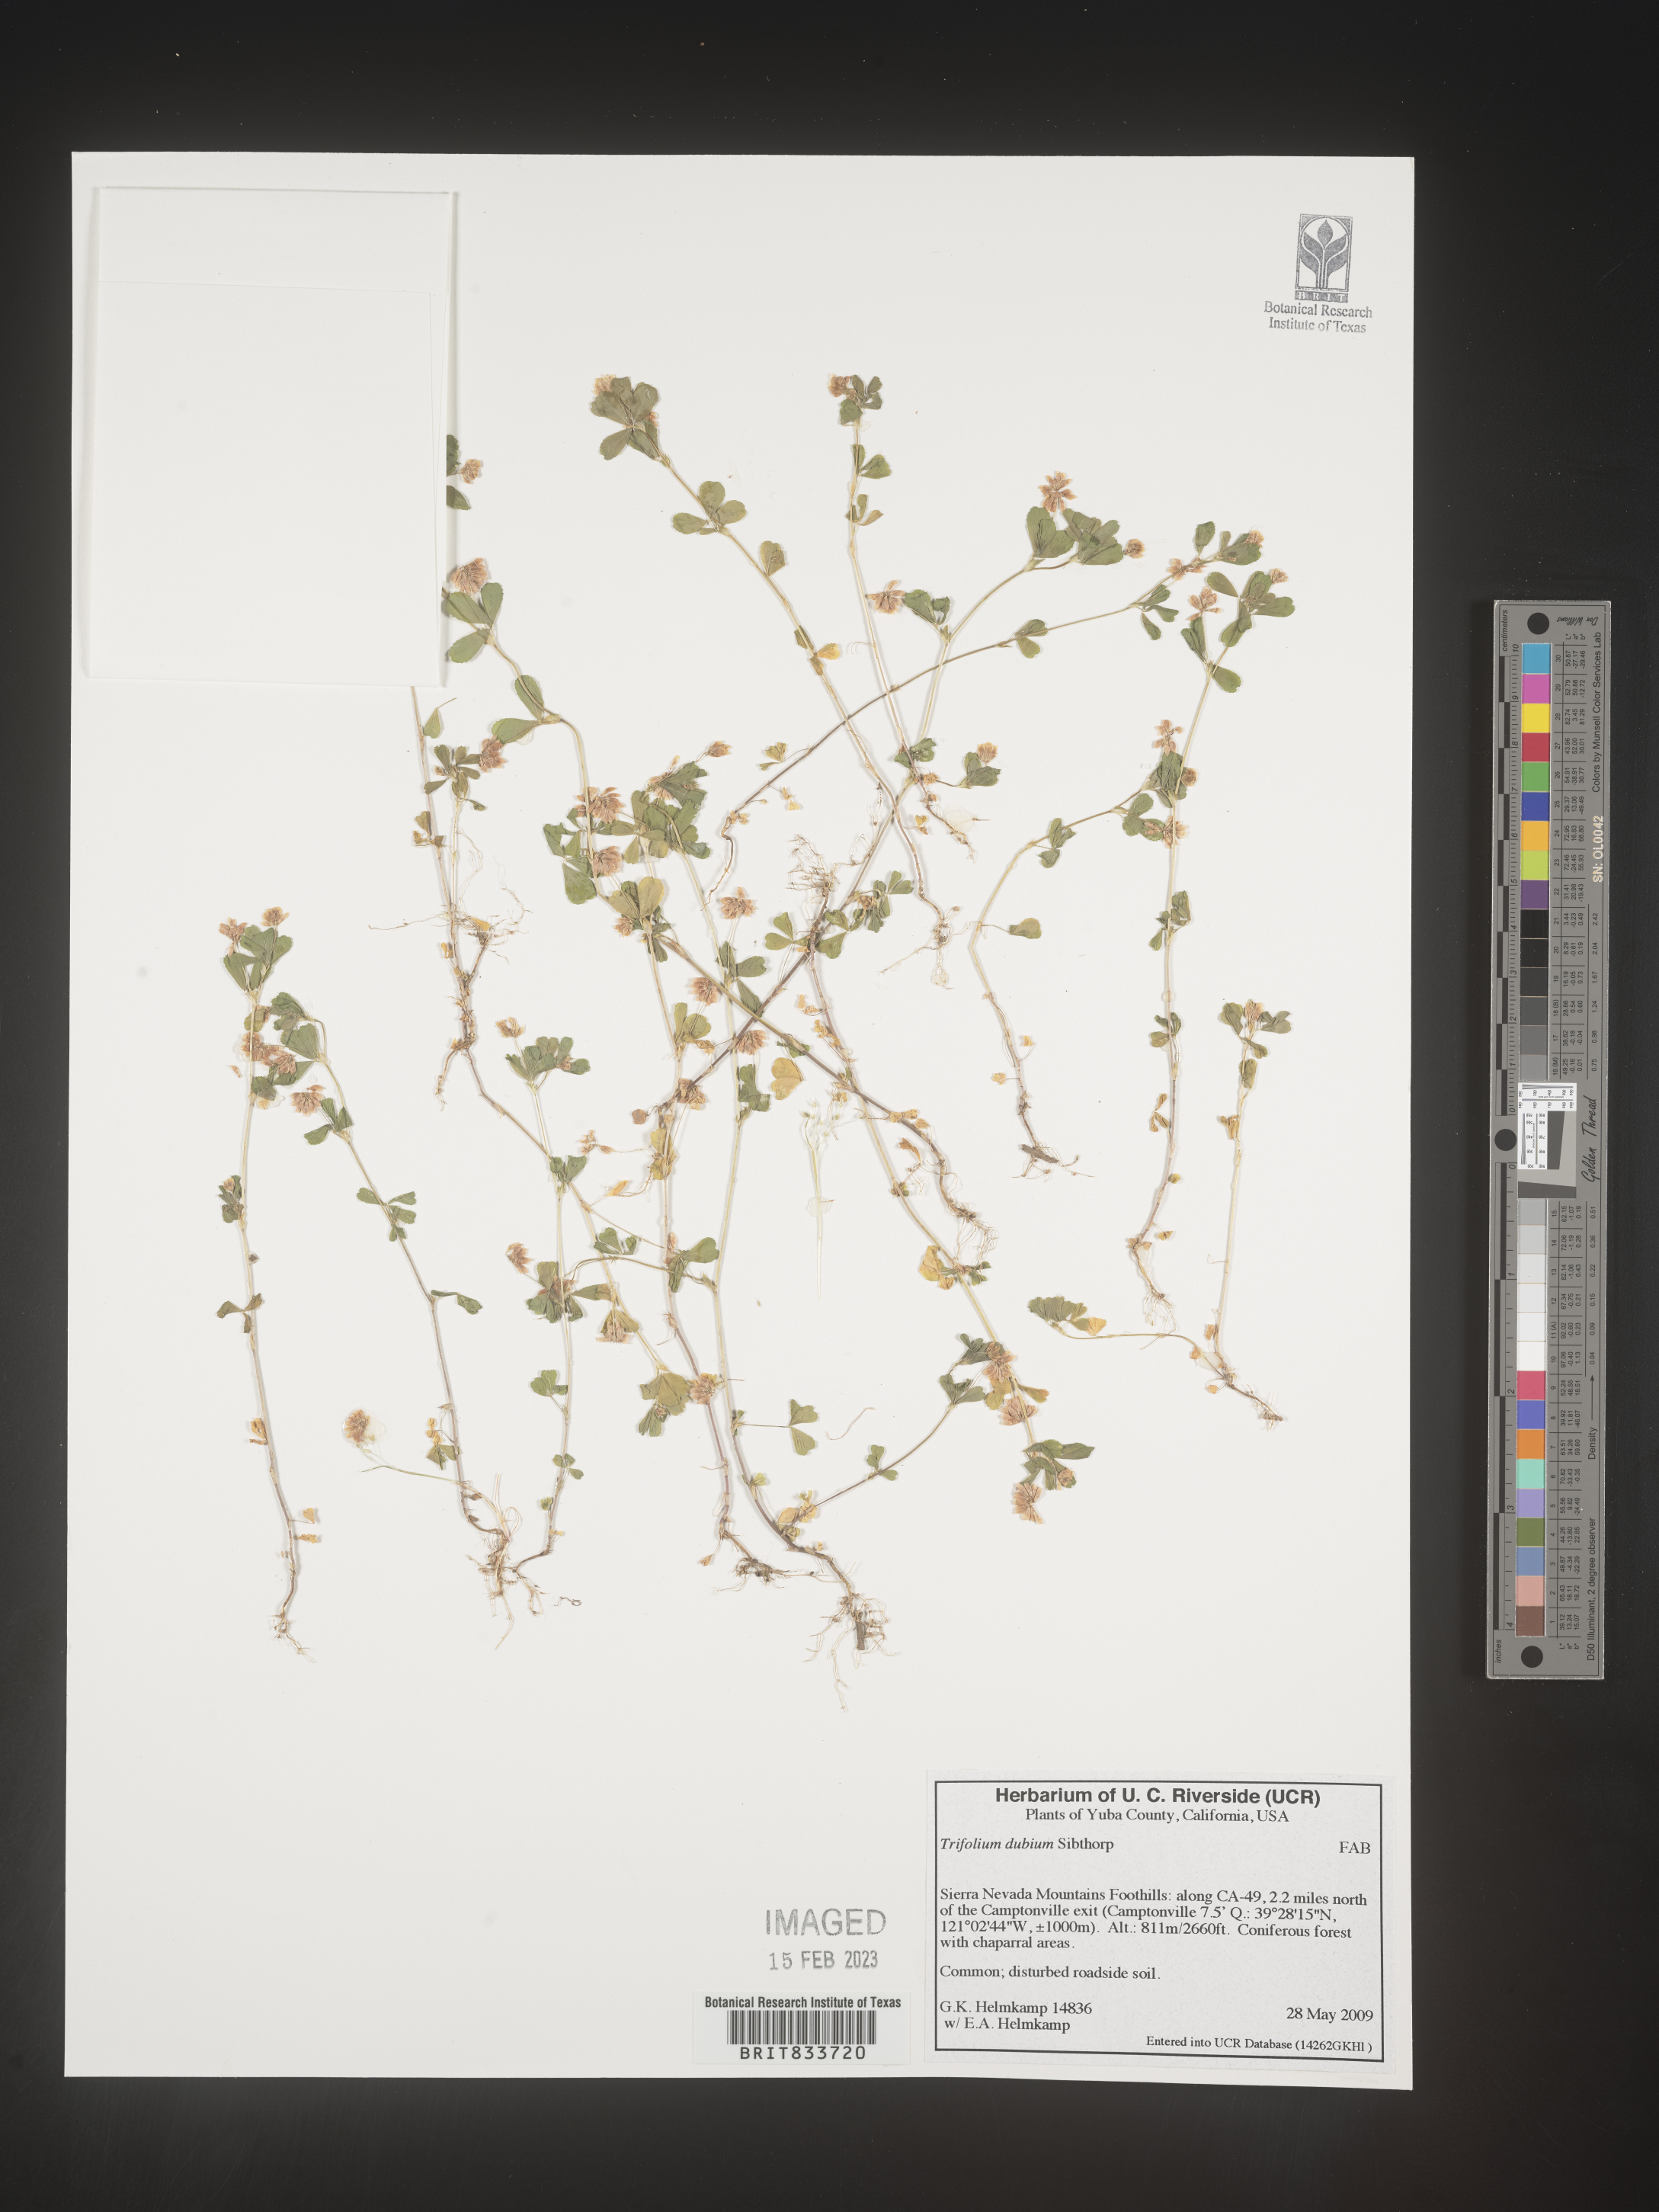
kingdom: Plantae
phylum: Tracheophyta
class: Magnoliopsida
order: Fabales
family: Fabaceae
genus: Trifolium
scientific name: Trifolium dubium
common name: Suckling clover
